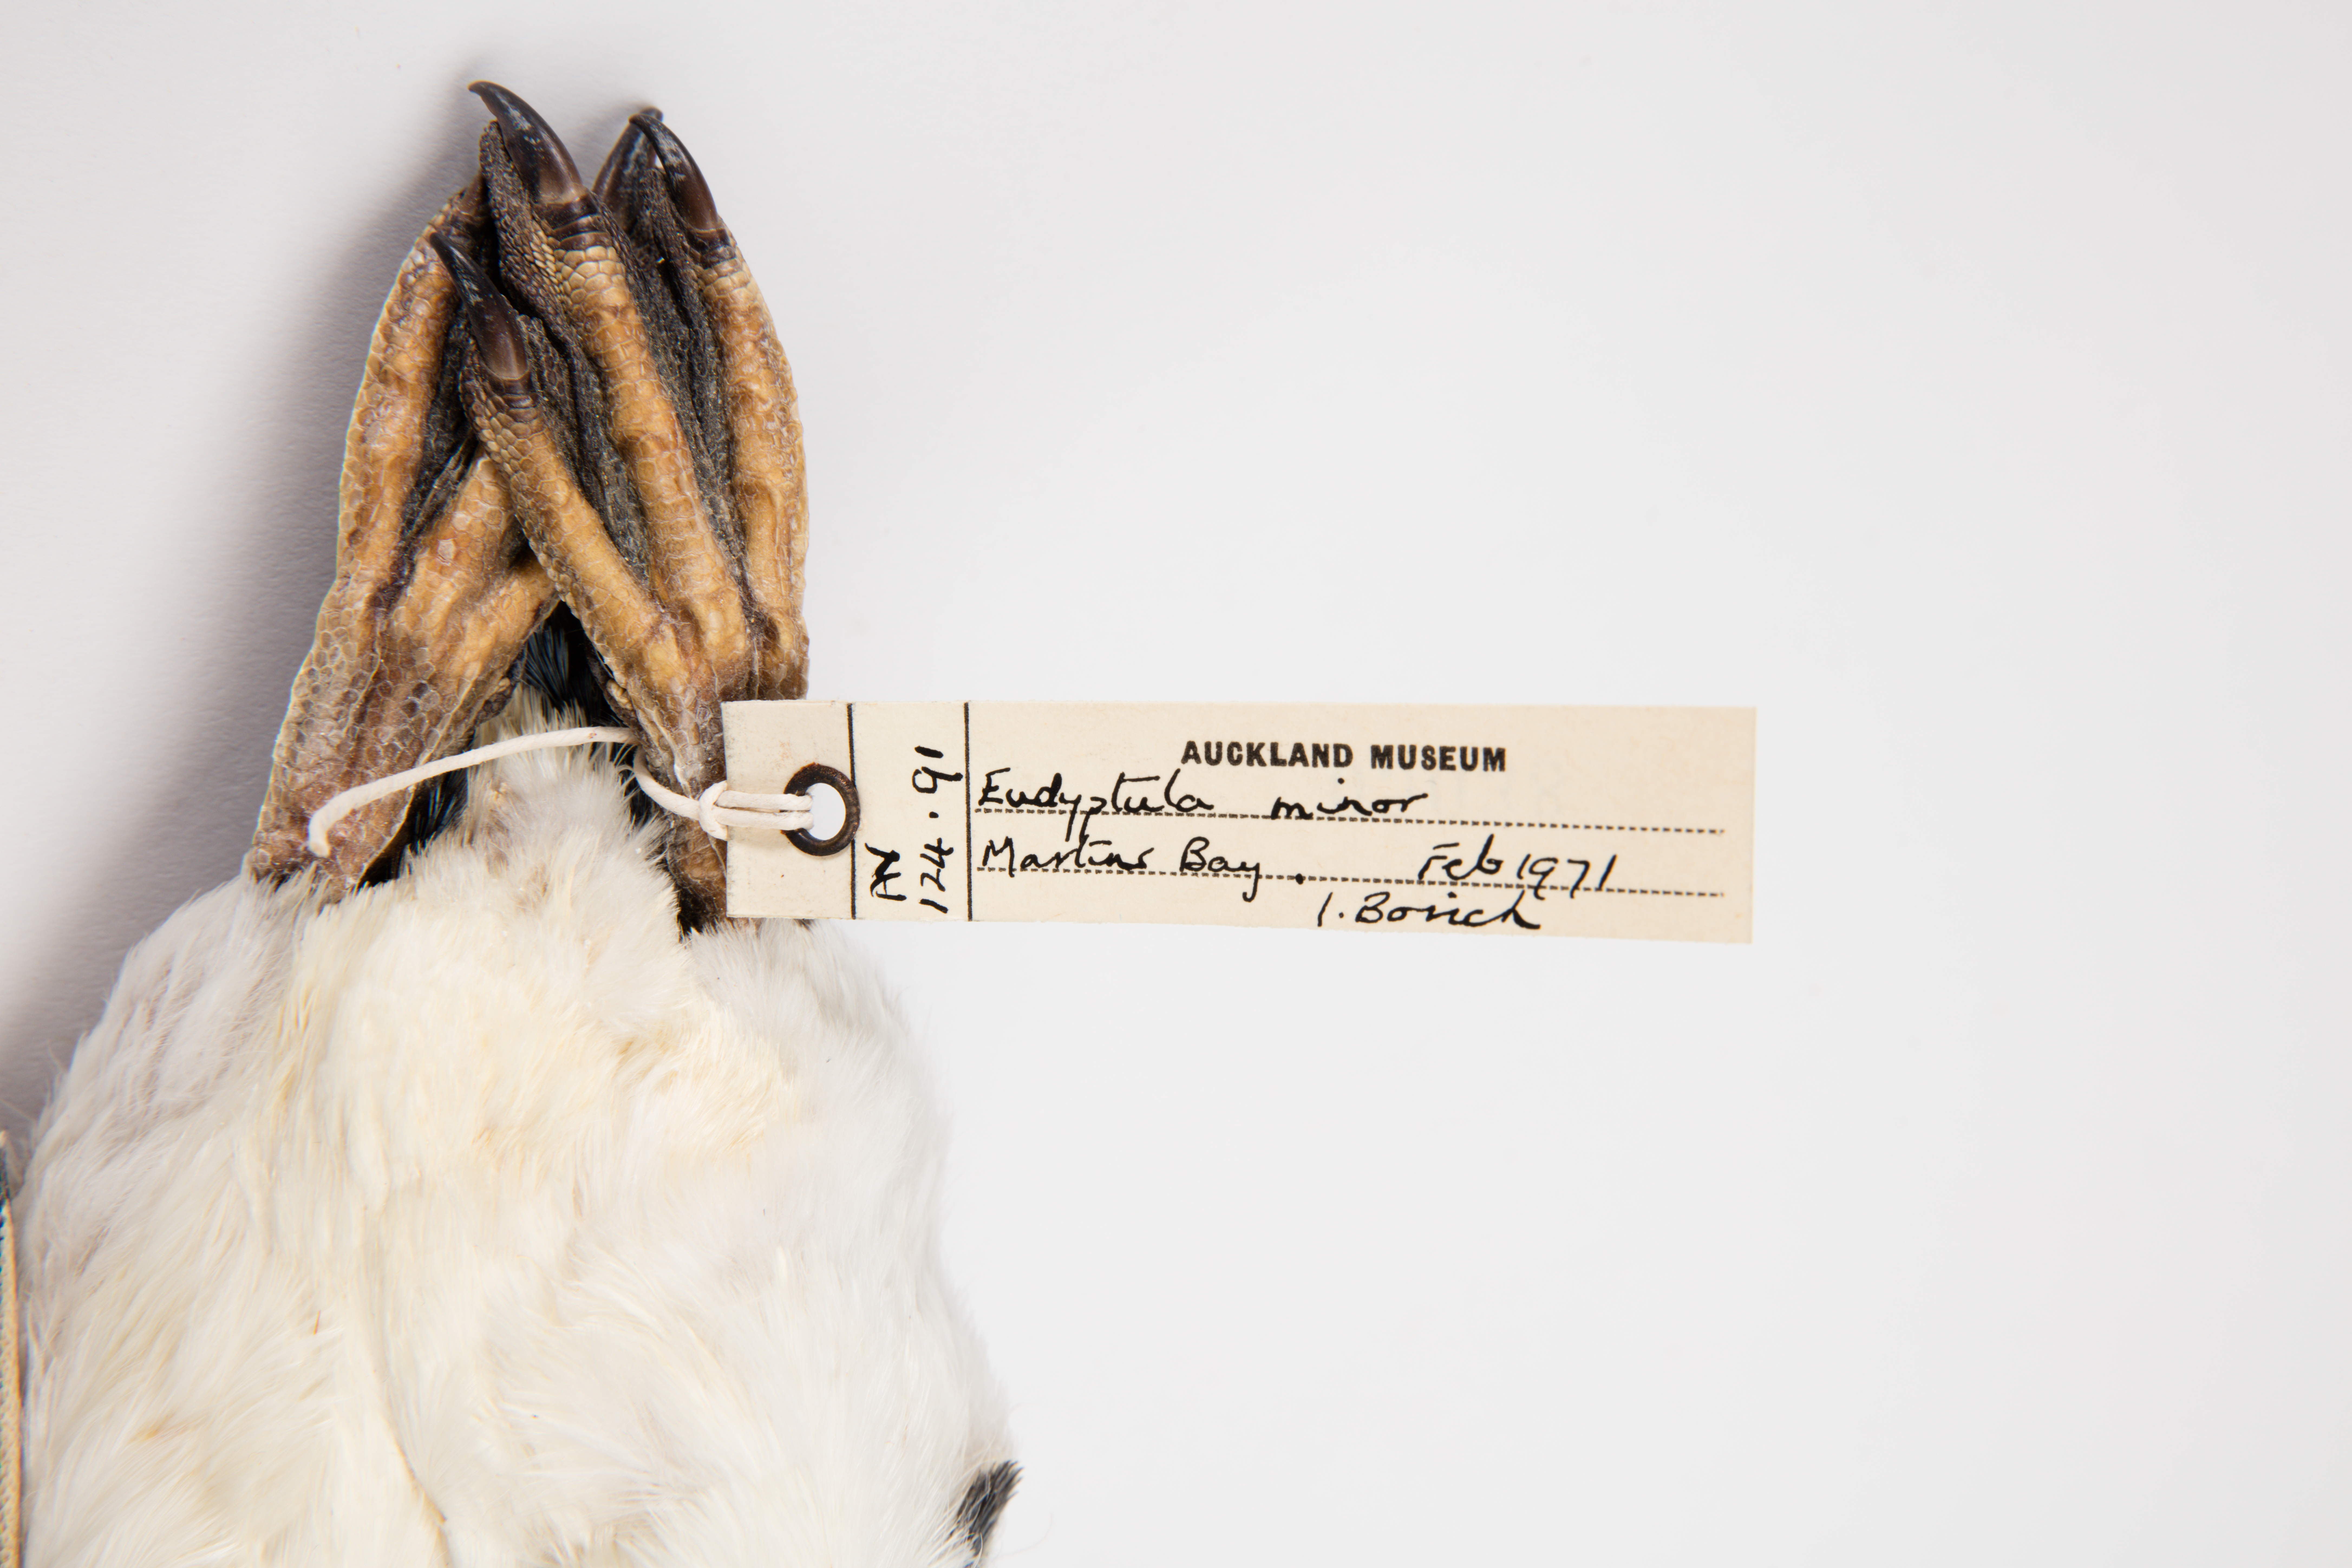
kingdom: Animalia
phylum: Chordata
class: Aves
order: Sphenisciformes
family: Spheniscidae
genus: Eudyptula
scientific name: Eudyptula minor
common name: Little penguin
